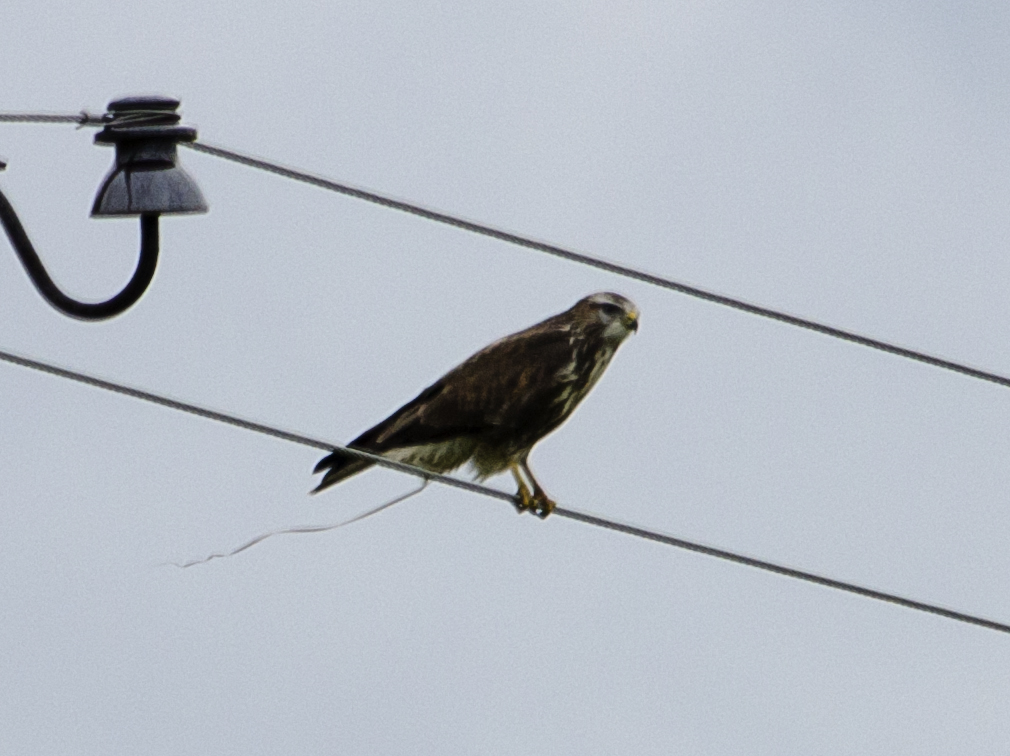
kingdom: Animalia
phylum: Chordata
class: Aves
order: Accipitriformes
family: Accipitridae
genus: Buteo
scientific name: Buteo buteo
